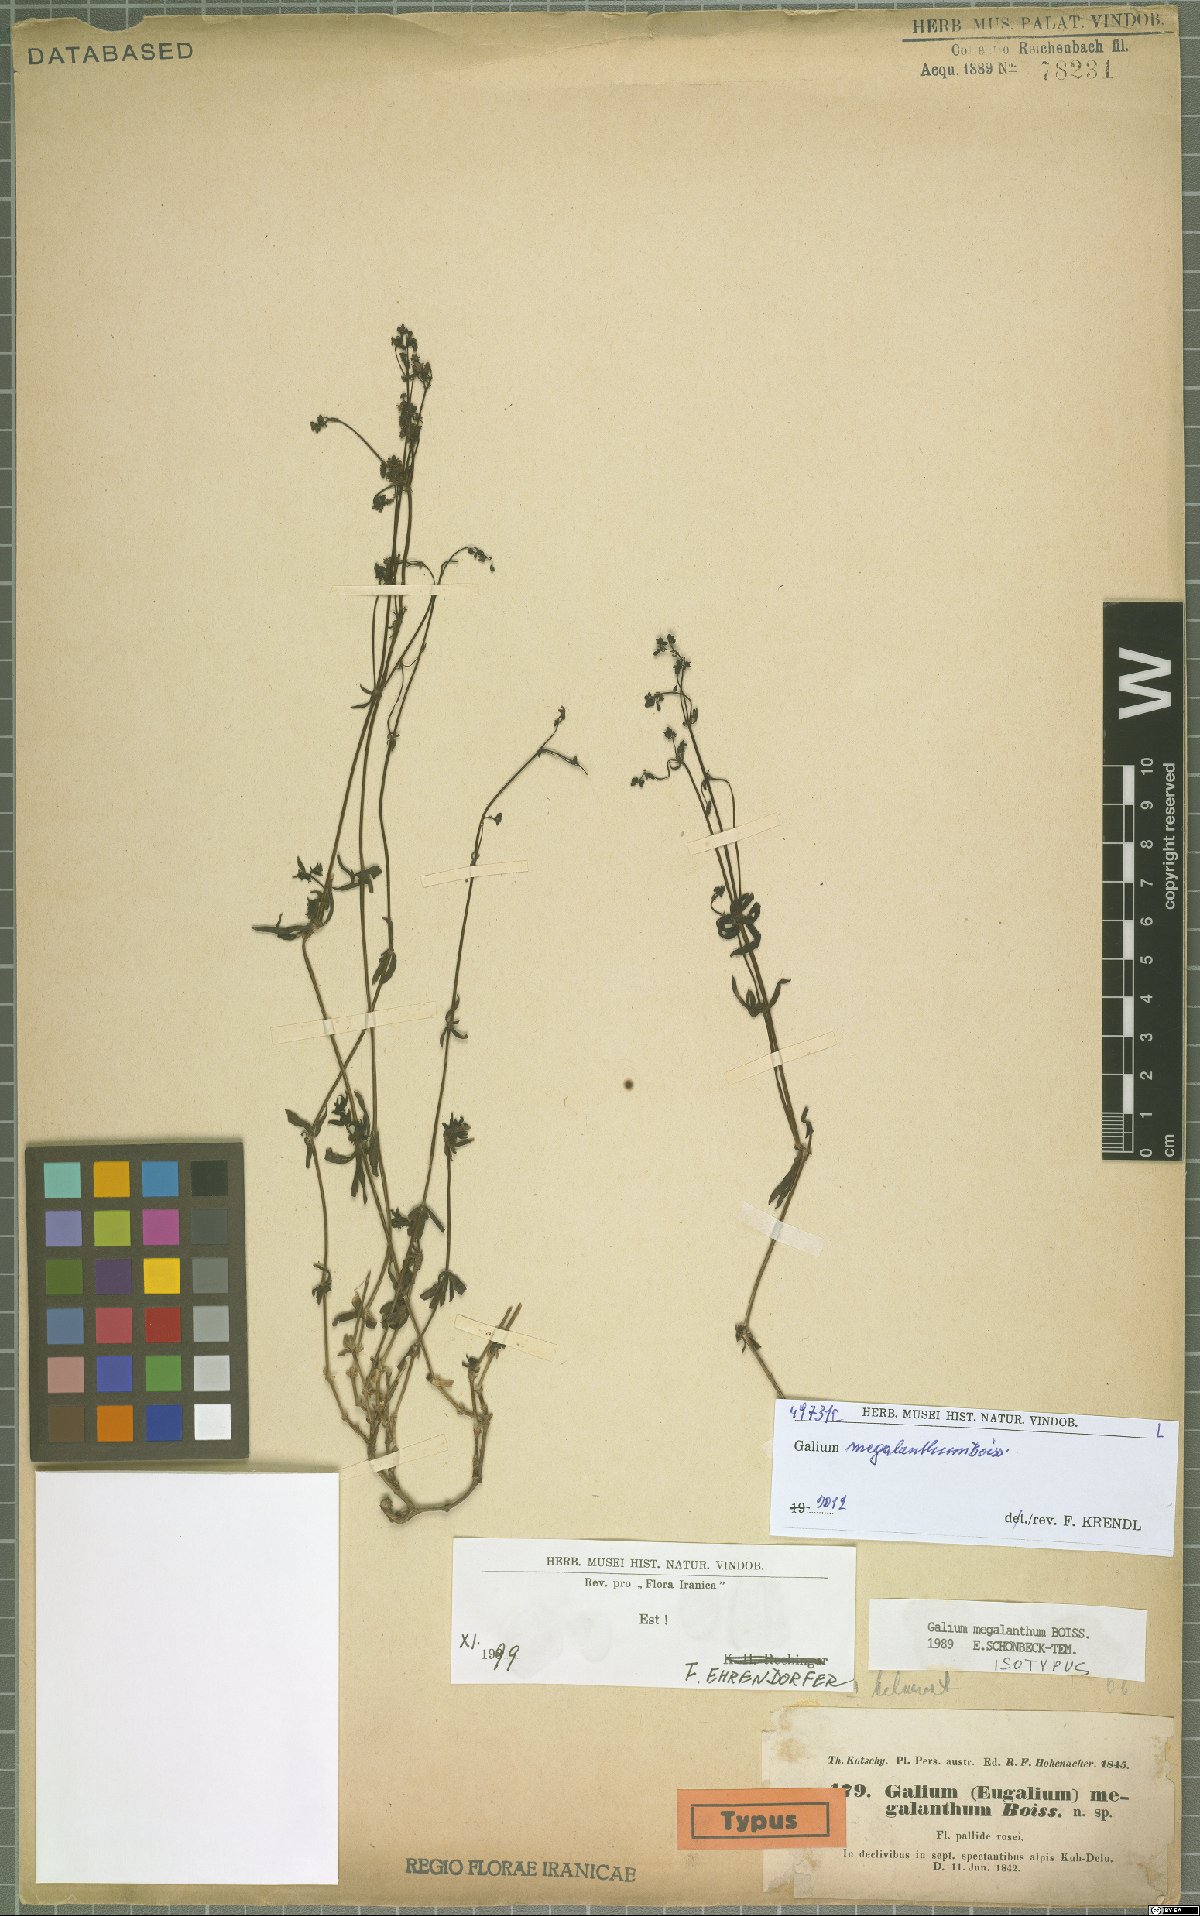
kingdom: Plantae
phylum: Tracheophyta
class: Magnoliopsida
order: Gentianales
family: Rubiaceae
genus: Galium
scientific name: Galium megalanthum
